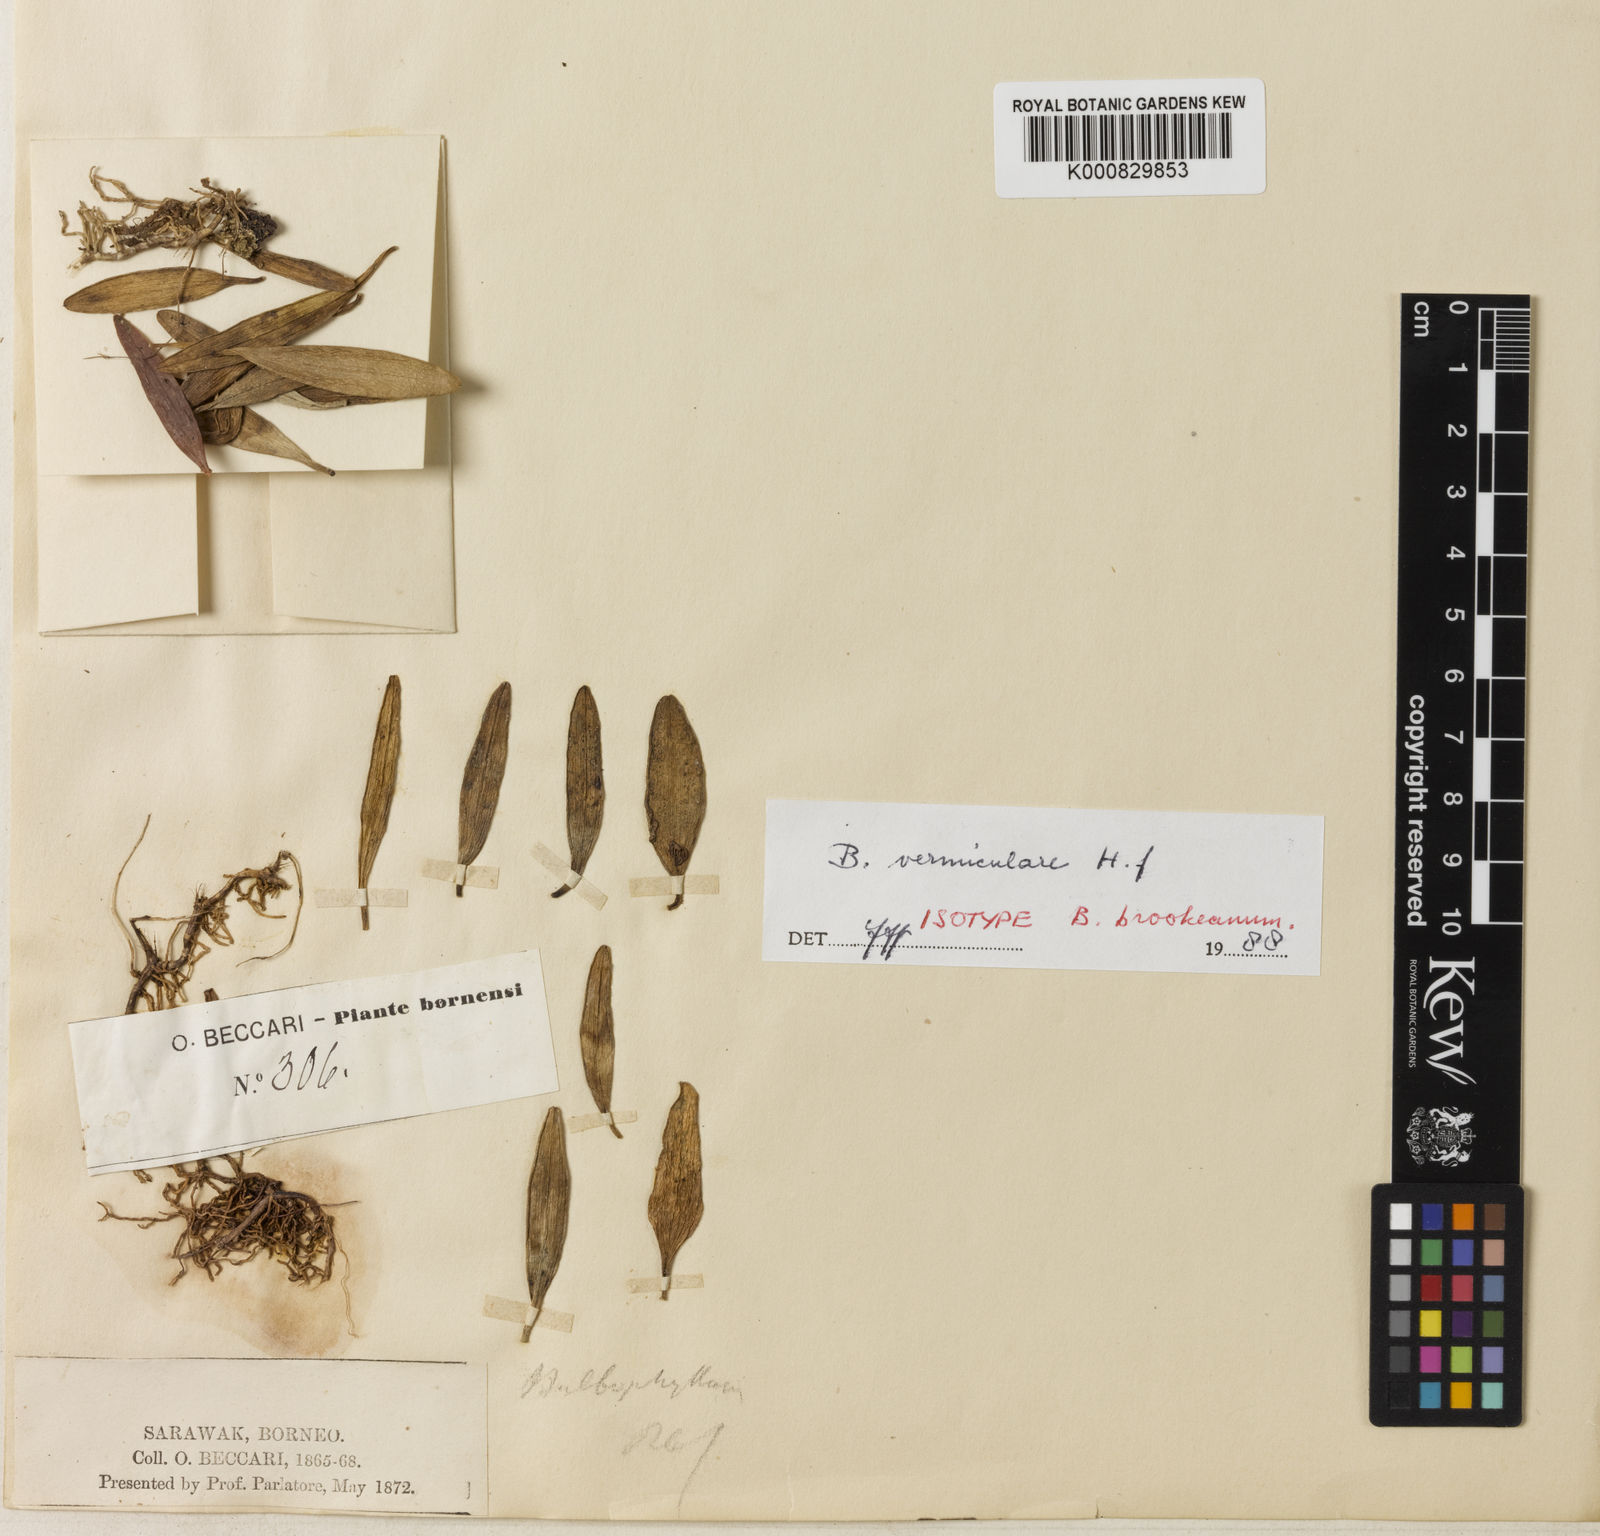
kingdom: Plantae
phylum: Tracheophyta
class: Liliopsida
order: Asparagales
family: Orchidaceae
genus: Bulbophyllum
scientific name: Bulbophyllum vermiculare
